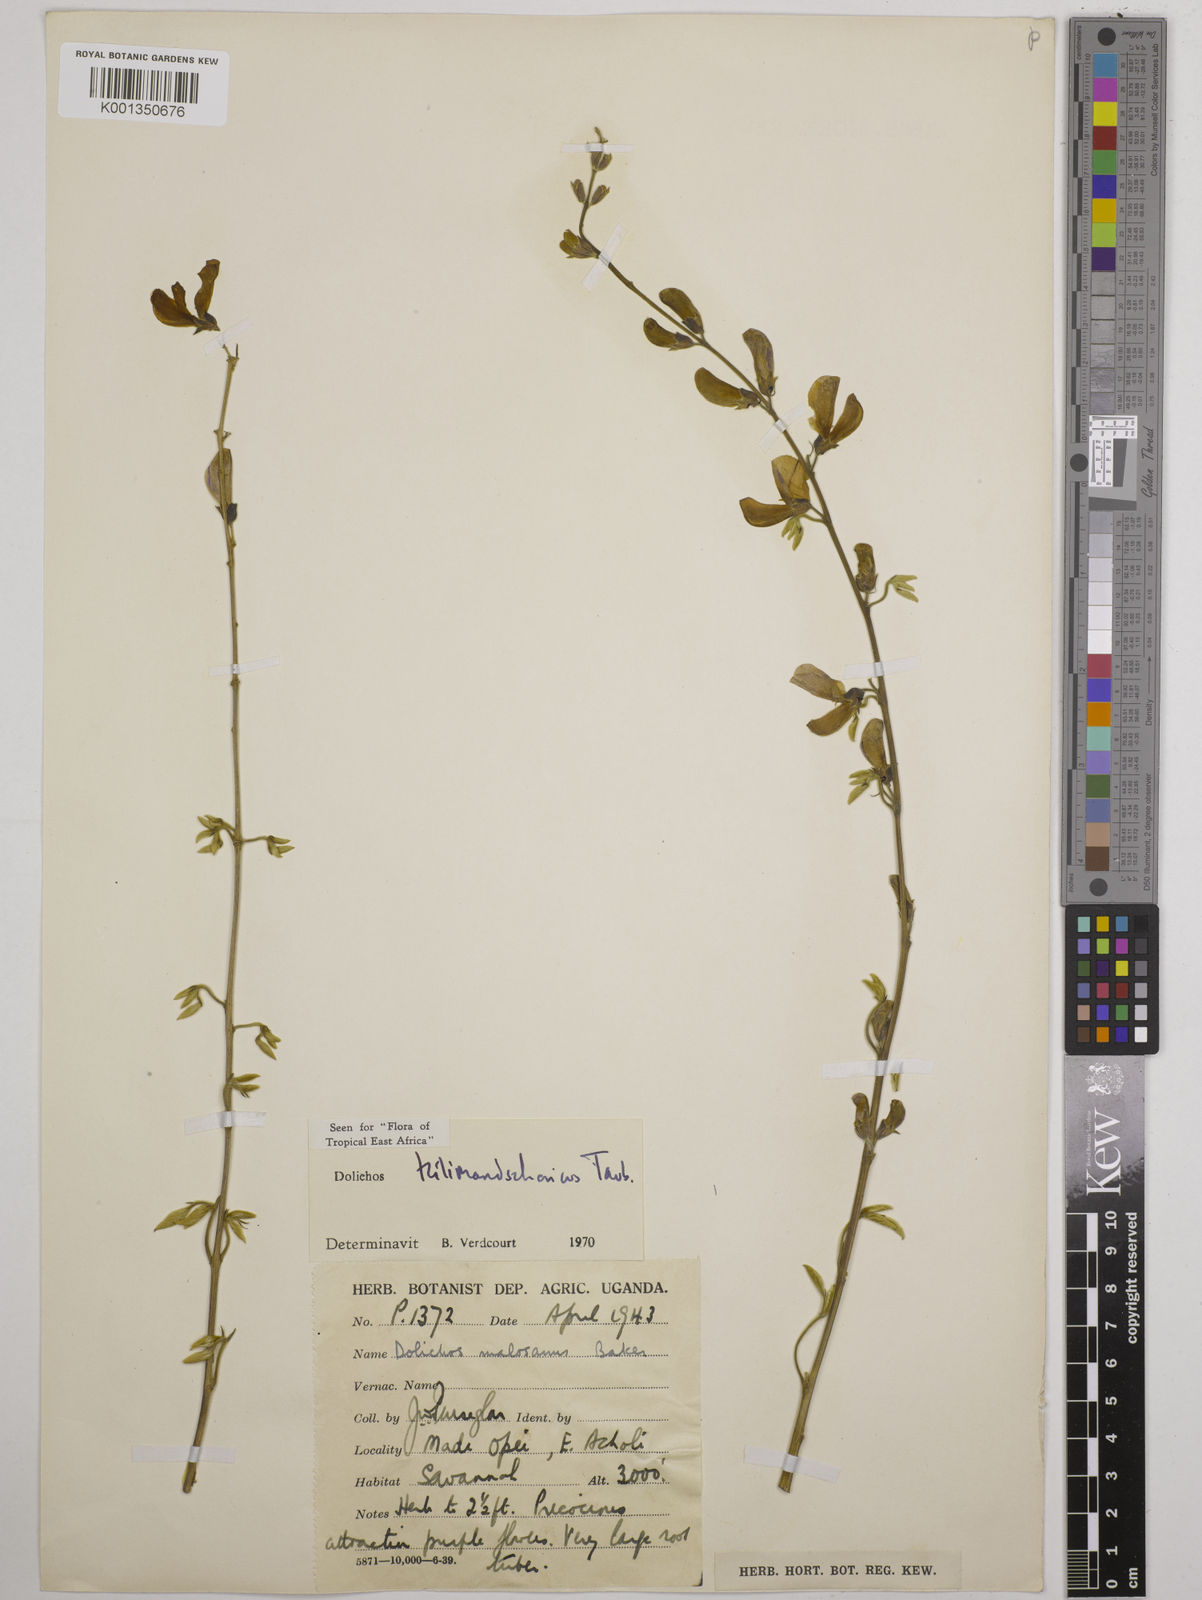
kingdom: Plantae
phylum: Tracheophyta
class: Magnoliopsida
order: Fabales
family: Fabaceae
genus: Dolichos
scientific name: Dolichos kilimandscharicus
